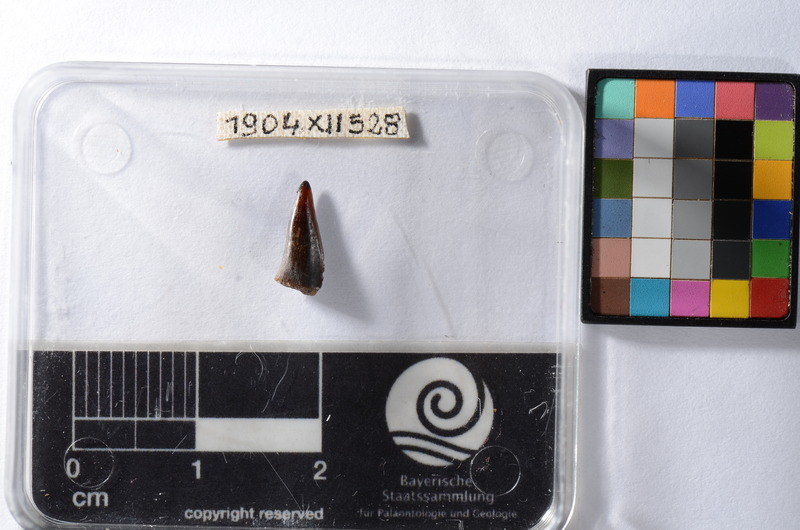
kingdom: Animalia
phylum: Chordata
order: Perciformes
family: Sphyraenidae
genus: Sphyraena
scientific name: Sphyraena Saurocephalus fajumensis
